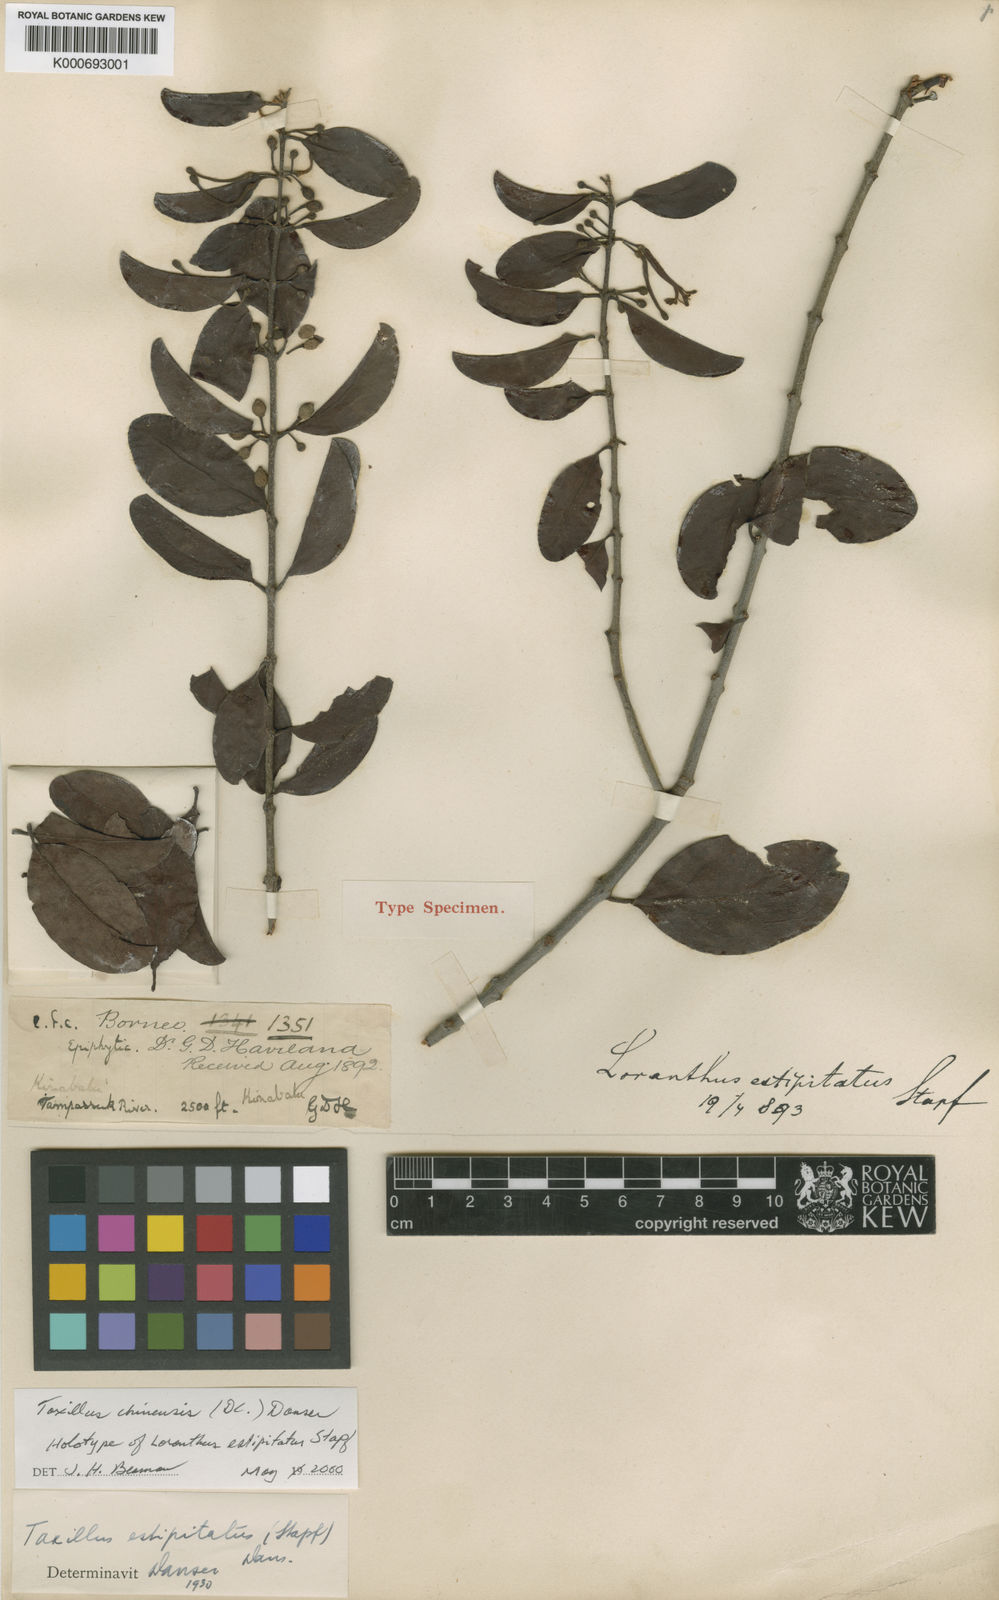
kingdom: Plantae
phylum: Tracheophyta
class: Magnoliopsida
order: Santalales
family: Loranthaceae
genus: Taxillus
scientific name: Taxillus chinensis
